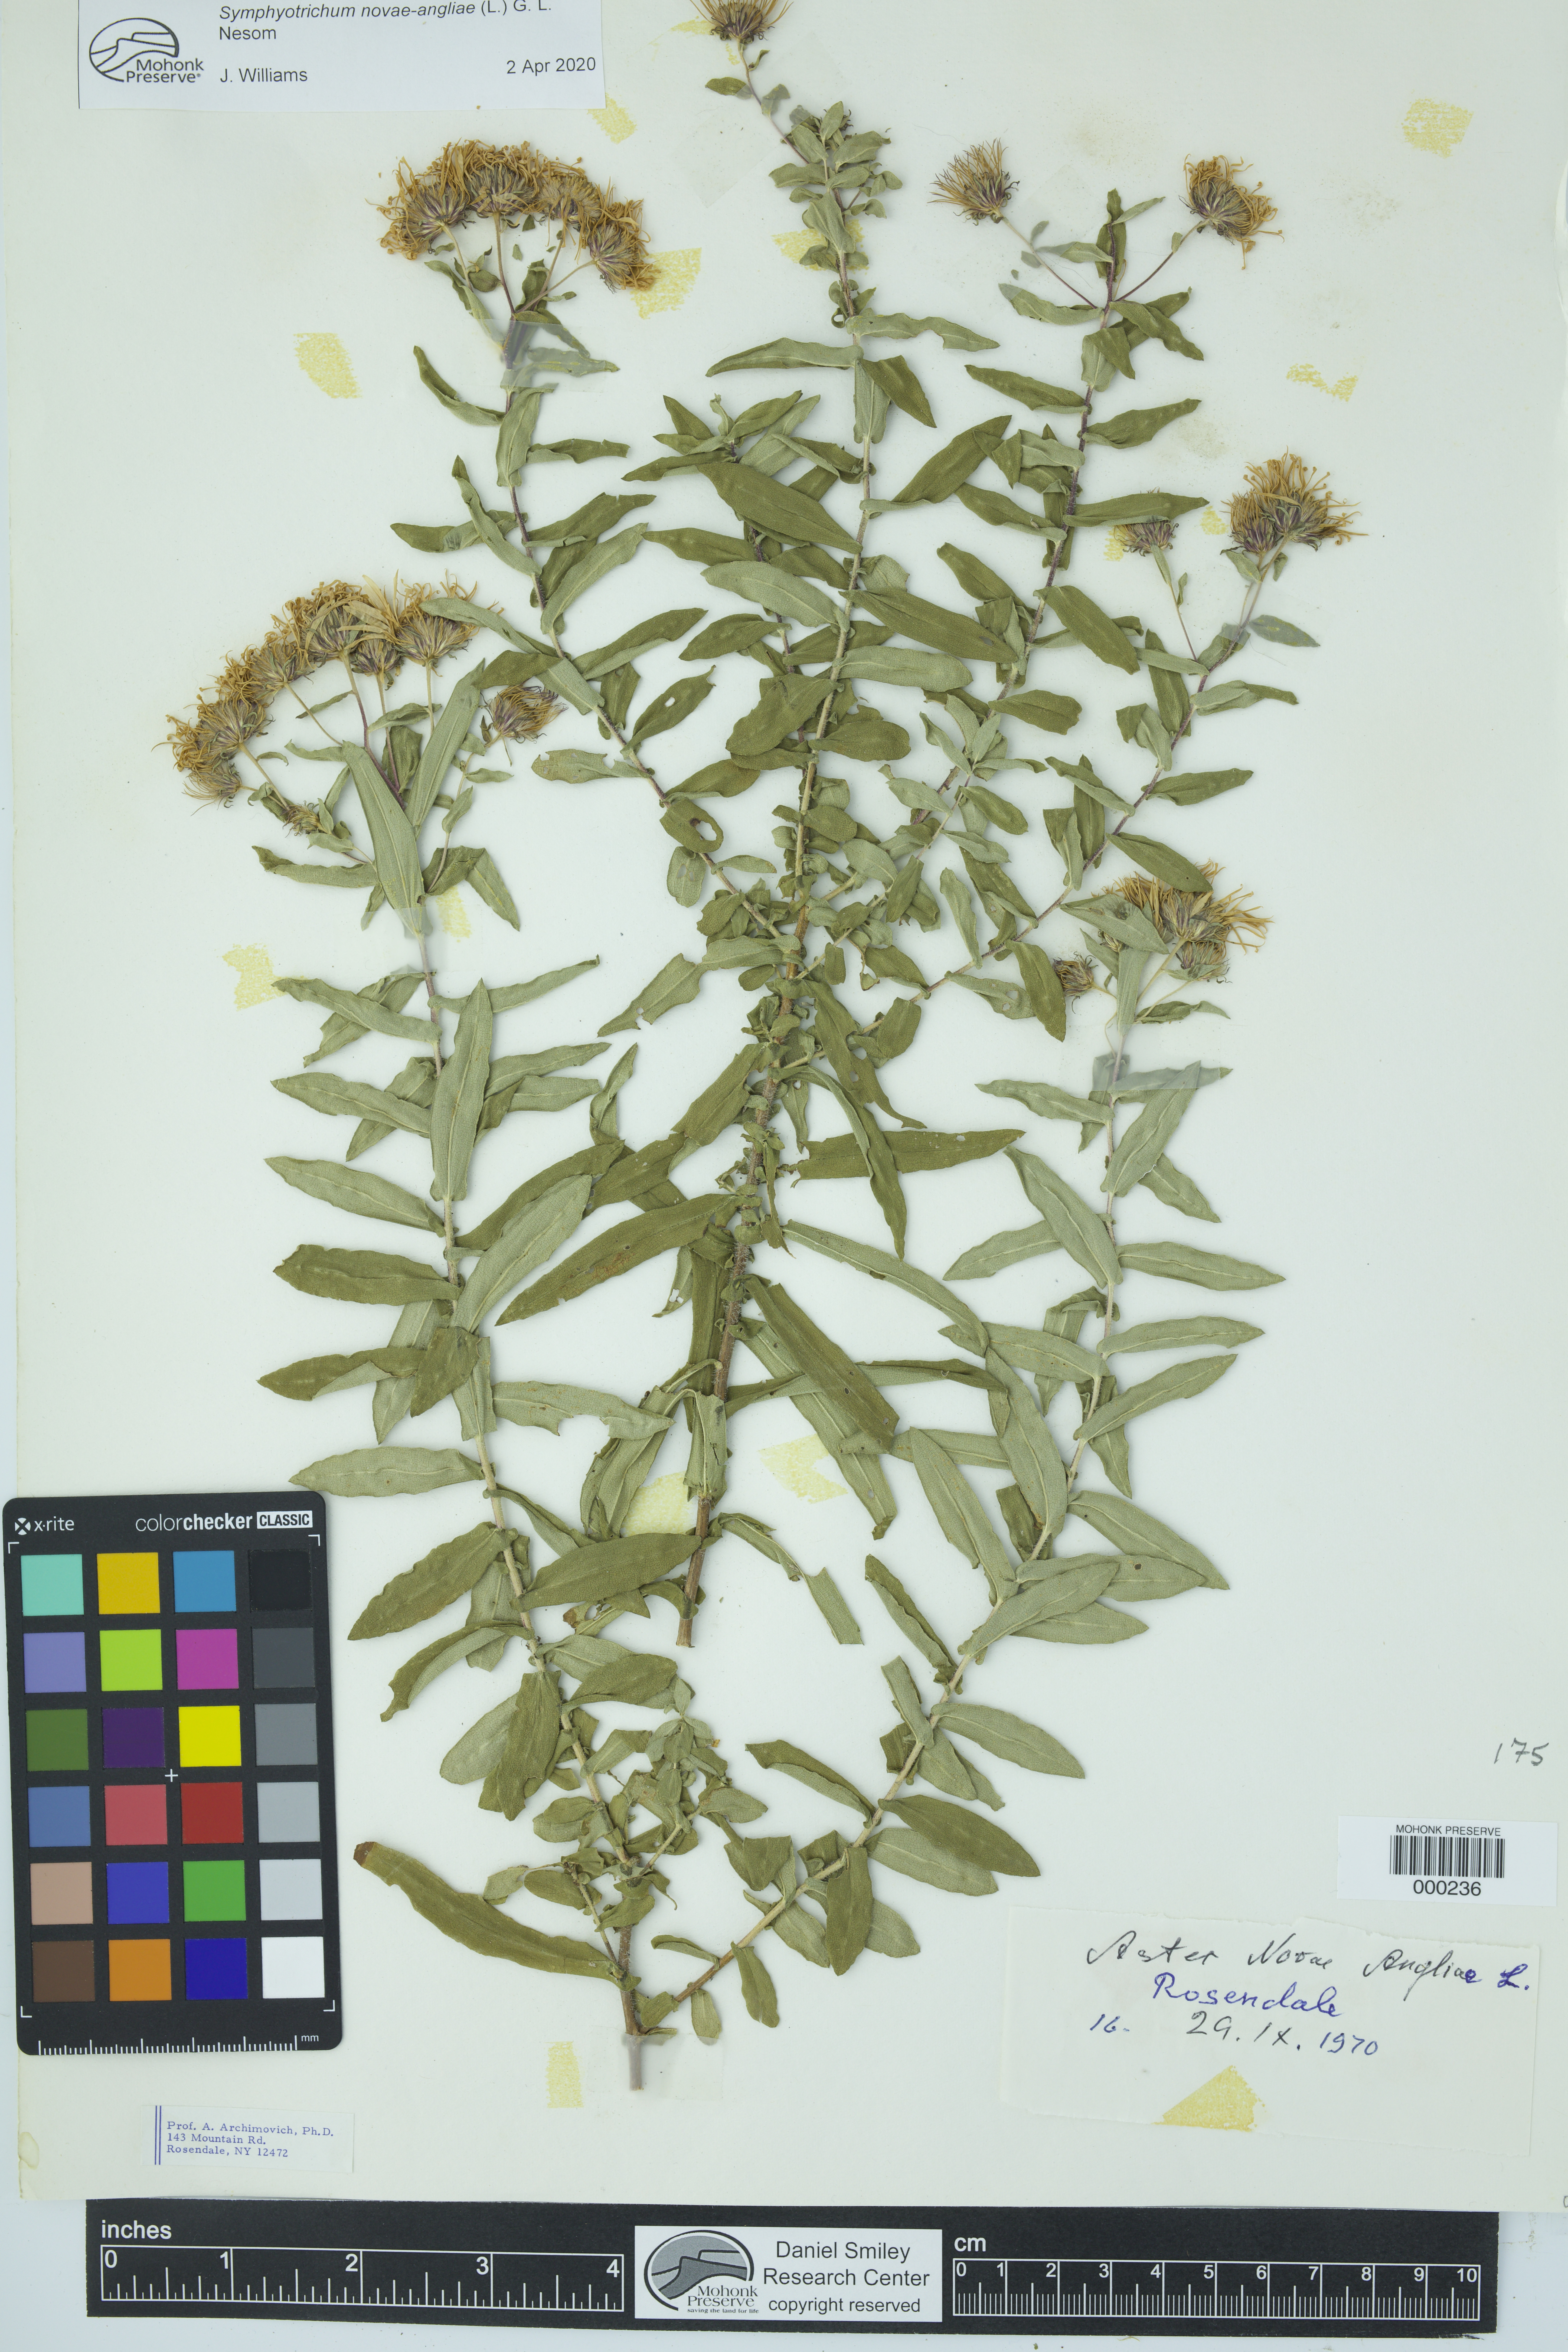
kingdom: Plantae
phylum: Tracheophyta
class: Magnoliopsida
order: Asterales
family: Asteraceae
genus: Aster
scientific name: Aster
